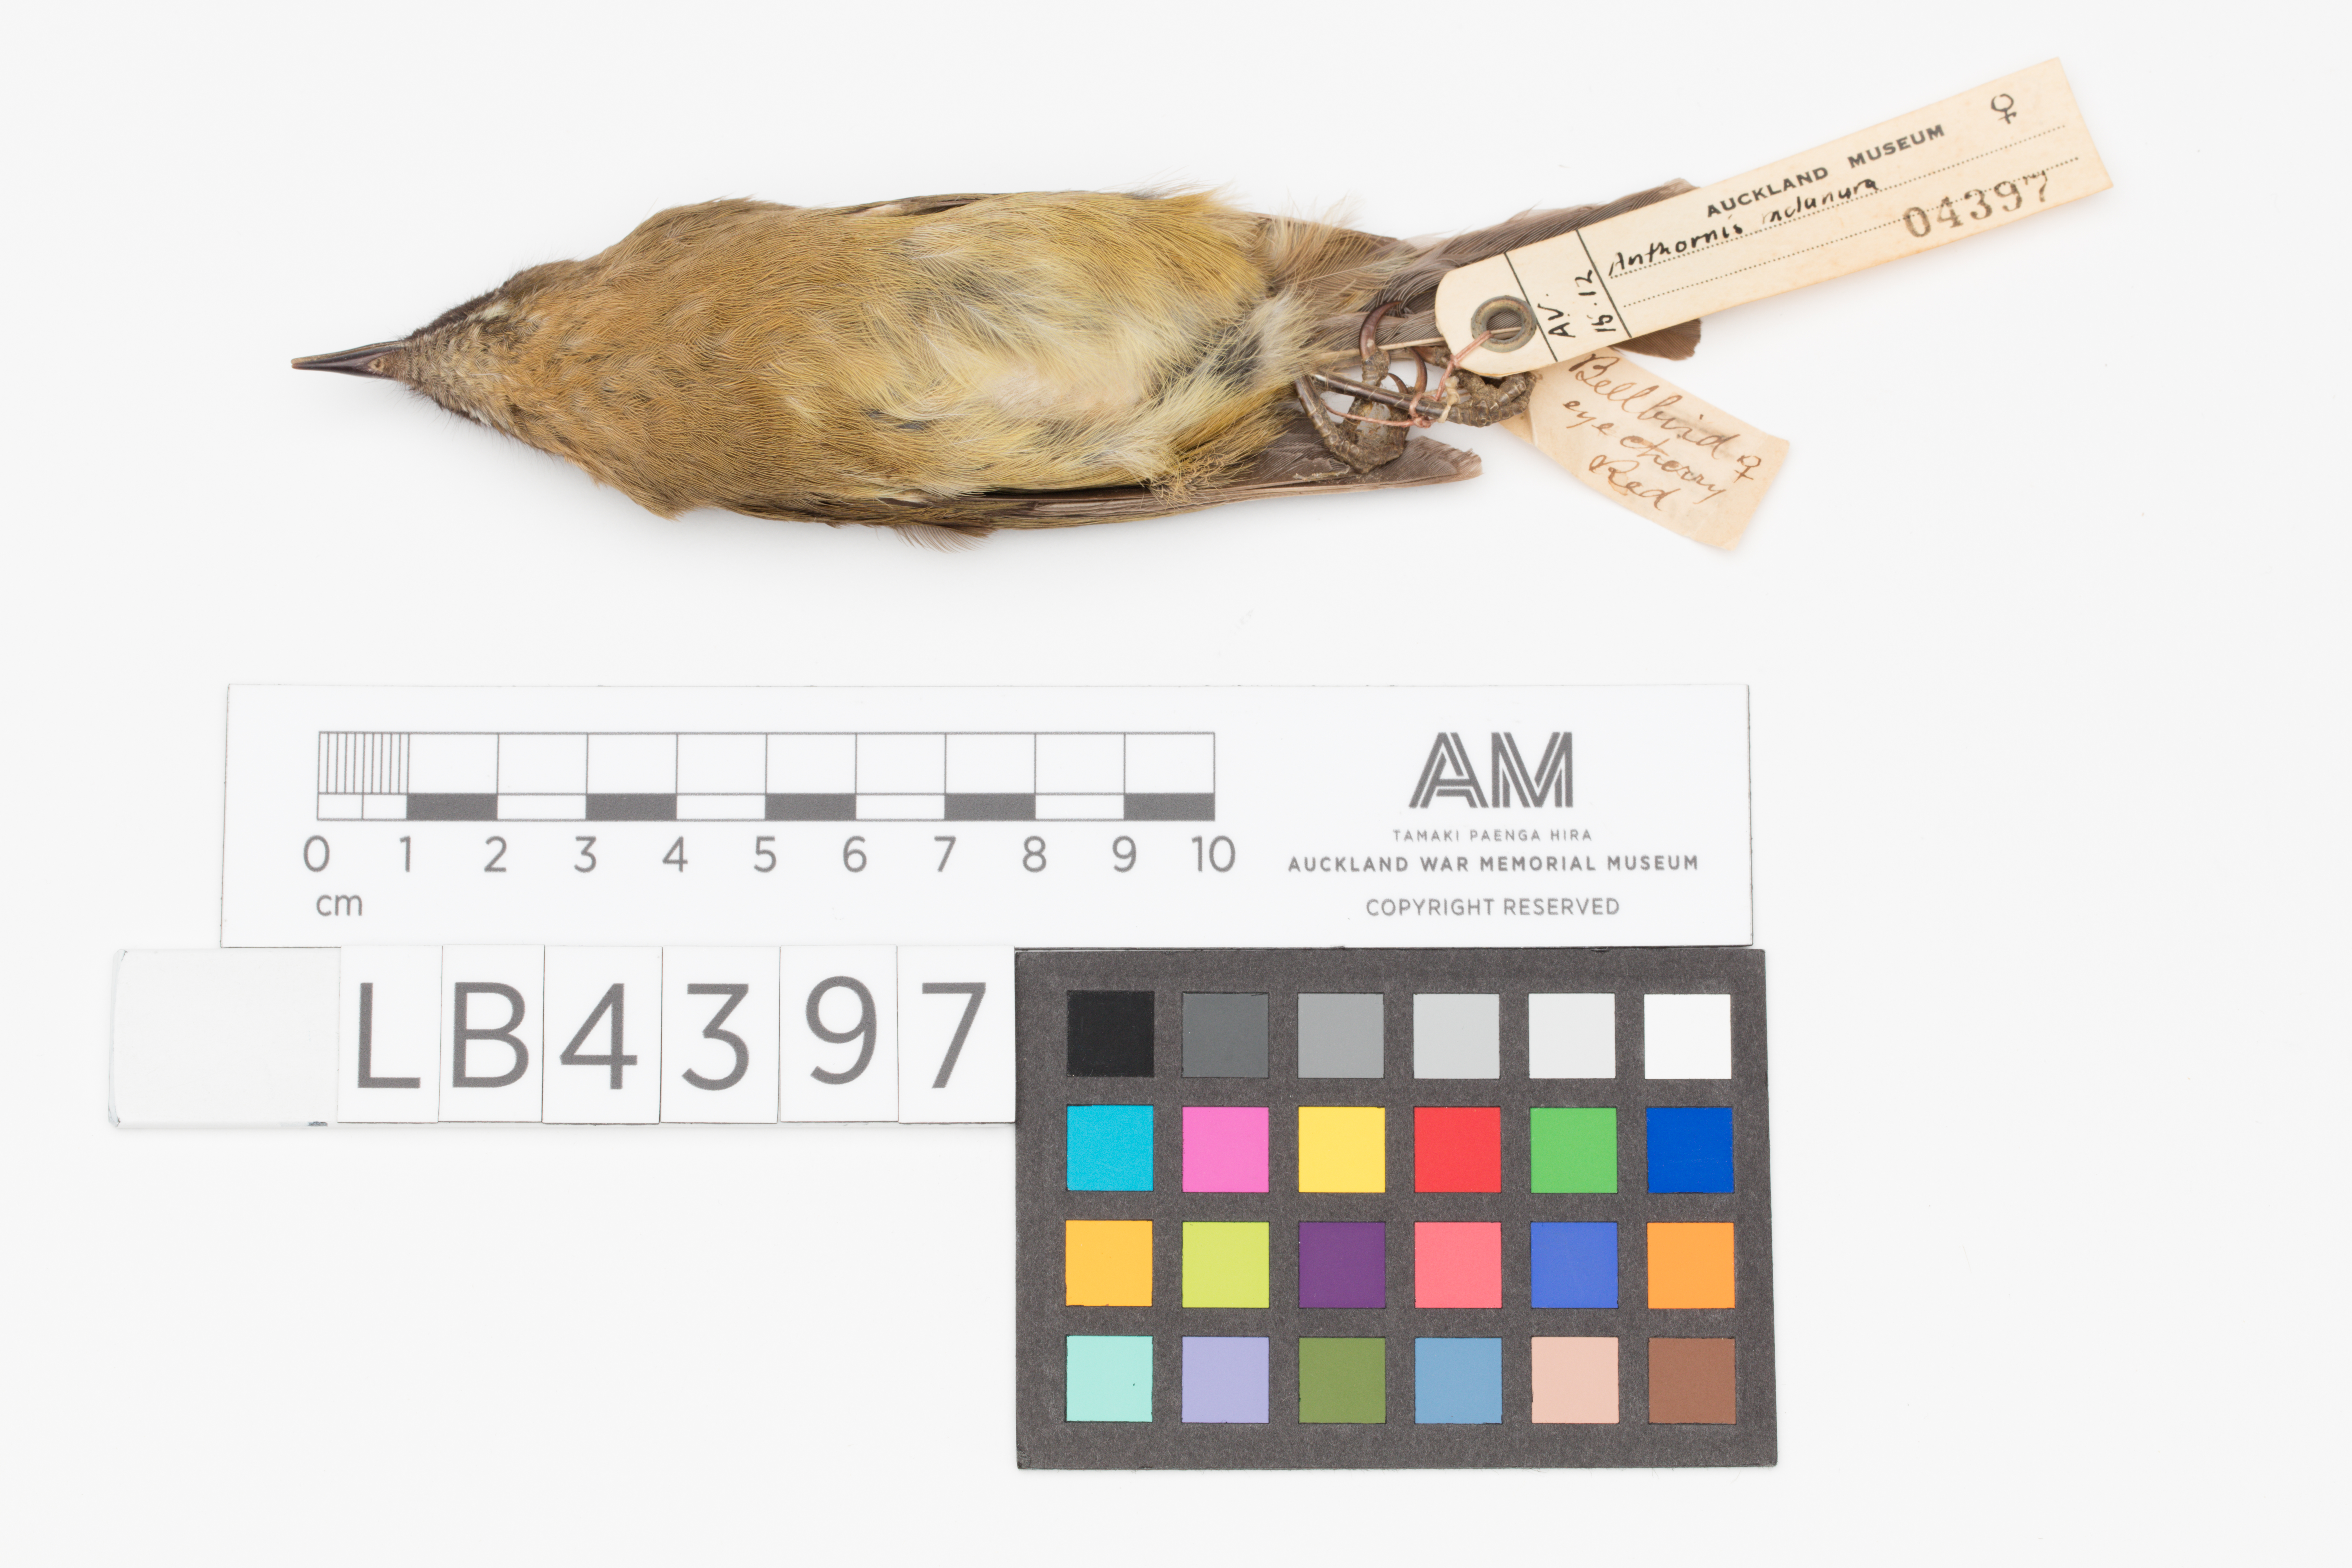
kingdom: Animalia
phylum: Chordata
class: Aves
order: Passeriformes
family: Meliphagidae
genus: Anthornis
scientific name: Anthornis melanura
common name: New zealand bellbird
